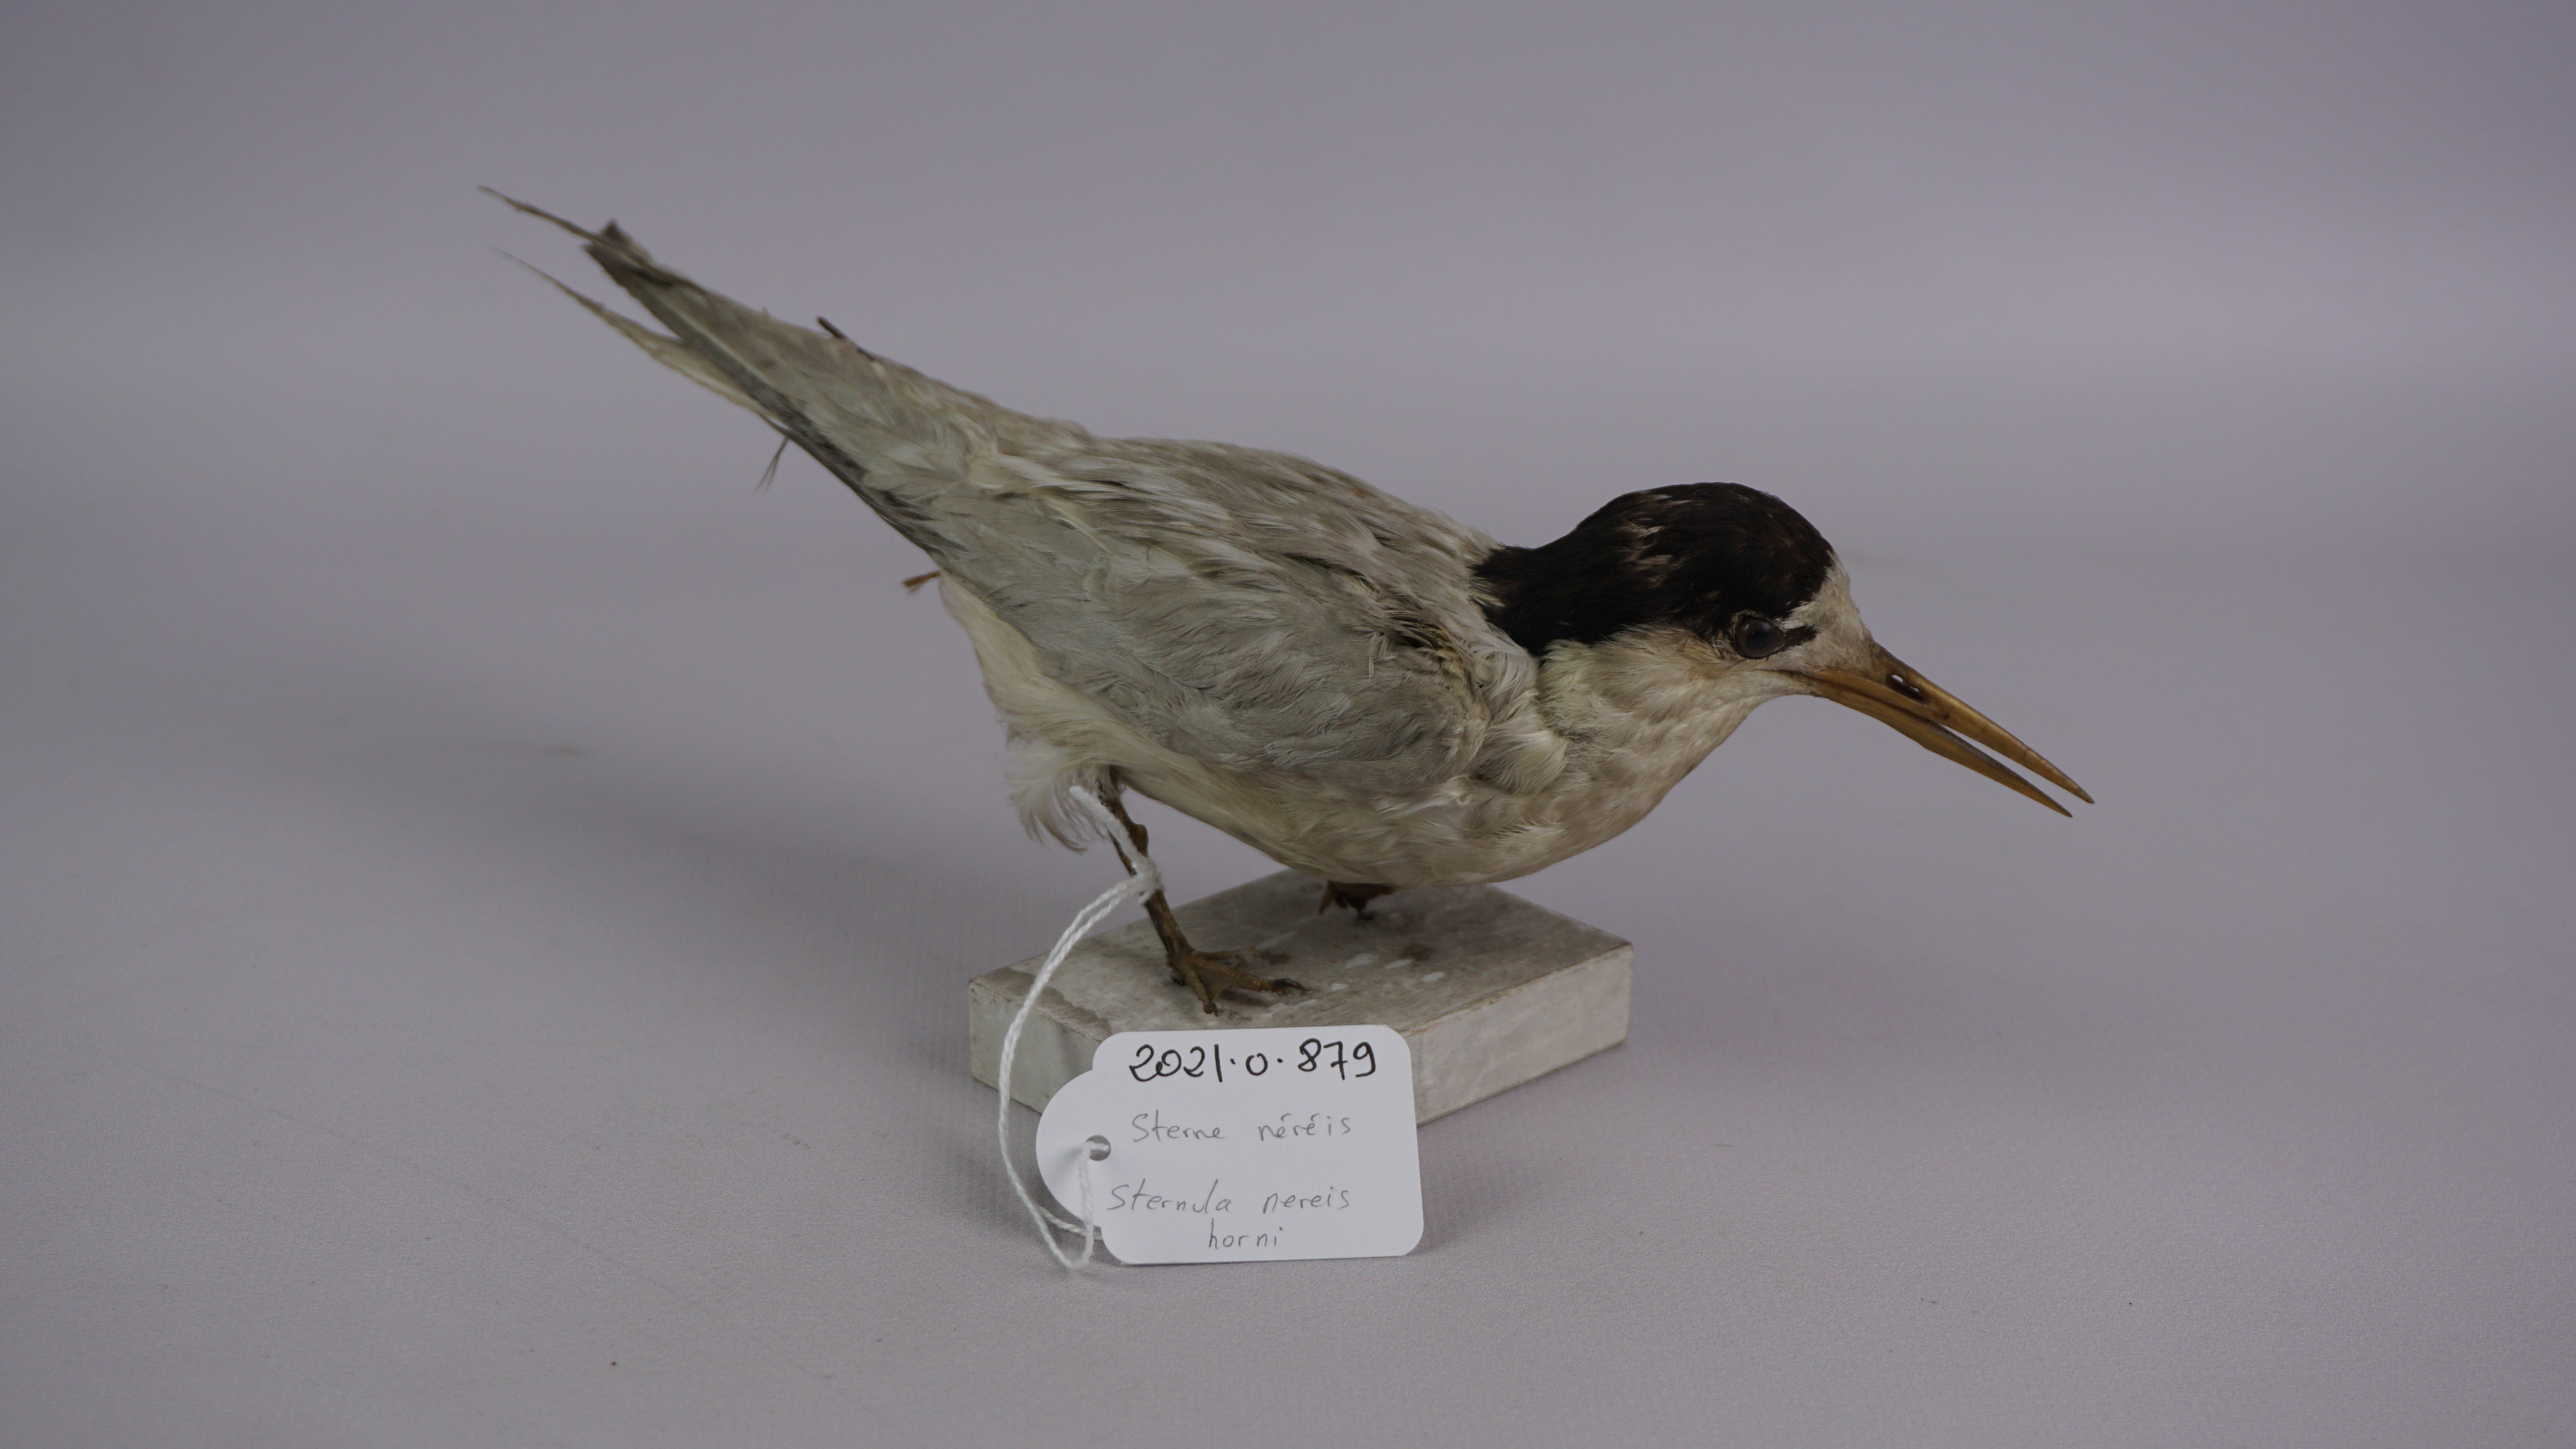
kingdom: Animalia
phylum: Chordata
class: Aves
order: Charadriiformes
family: Laridae
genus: Sternula
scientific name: Sternula nereis
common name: Fairy tern
